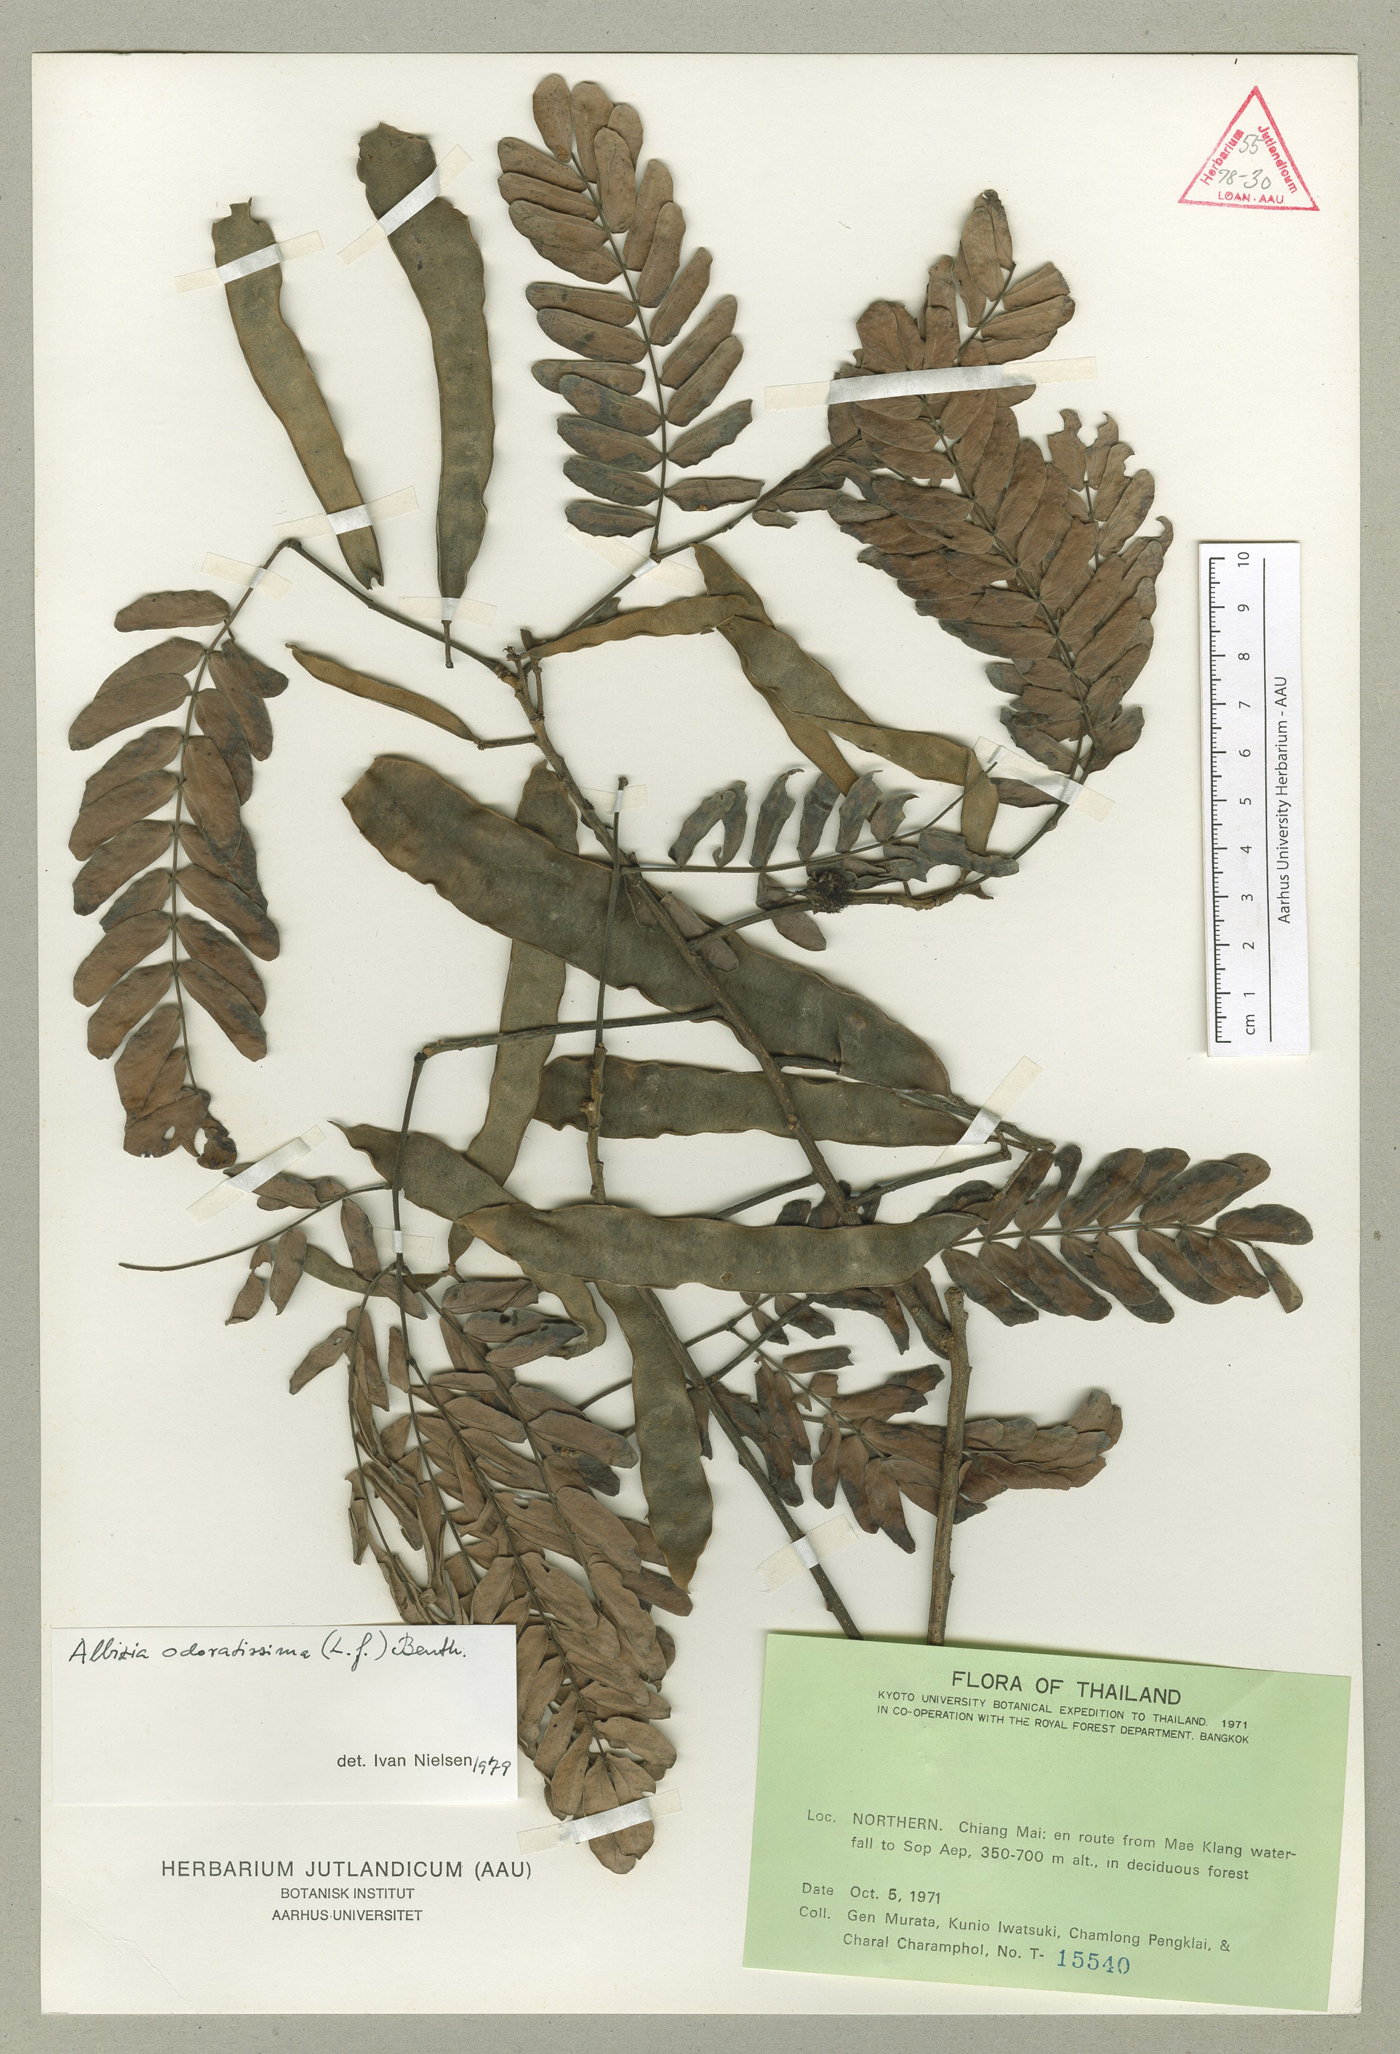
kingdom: Plantae
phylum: Tracheophyta
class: Magnoliopsida
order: Fabales
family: Fabaceae
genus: Albizia
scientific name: Albizia odoratissima
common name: Ceylon rosewood
